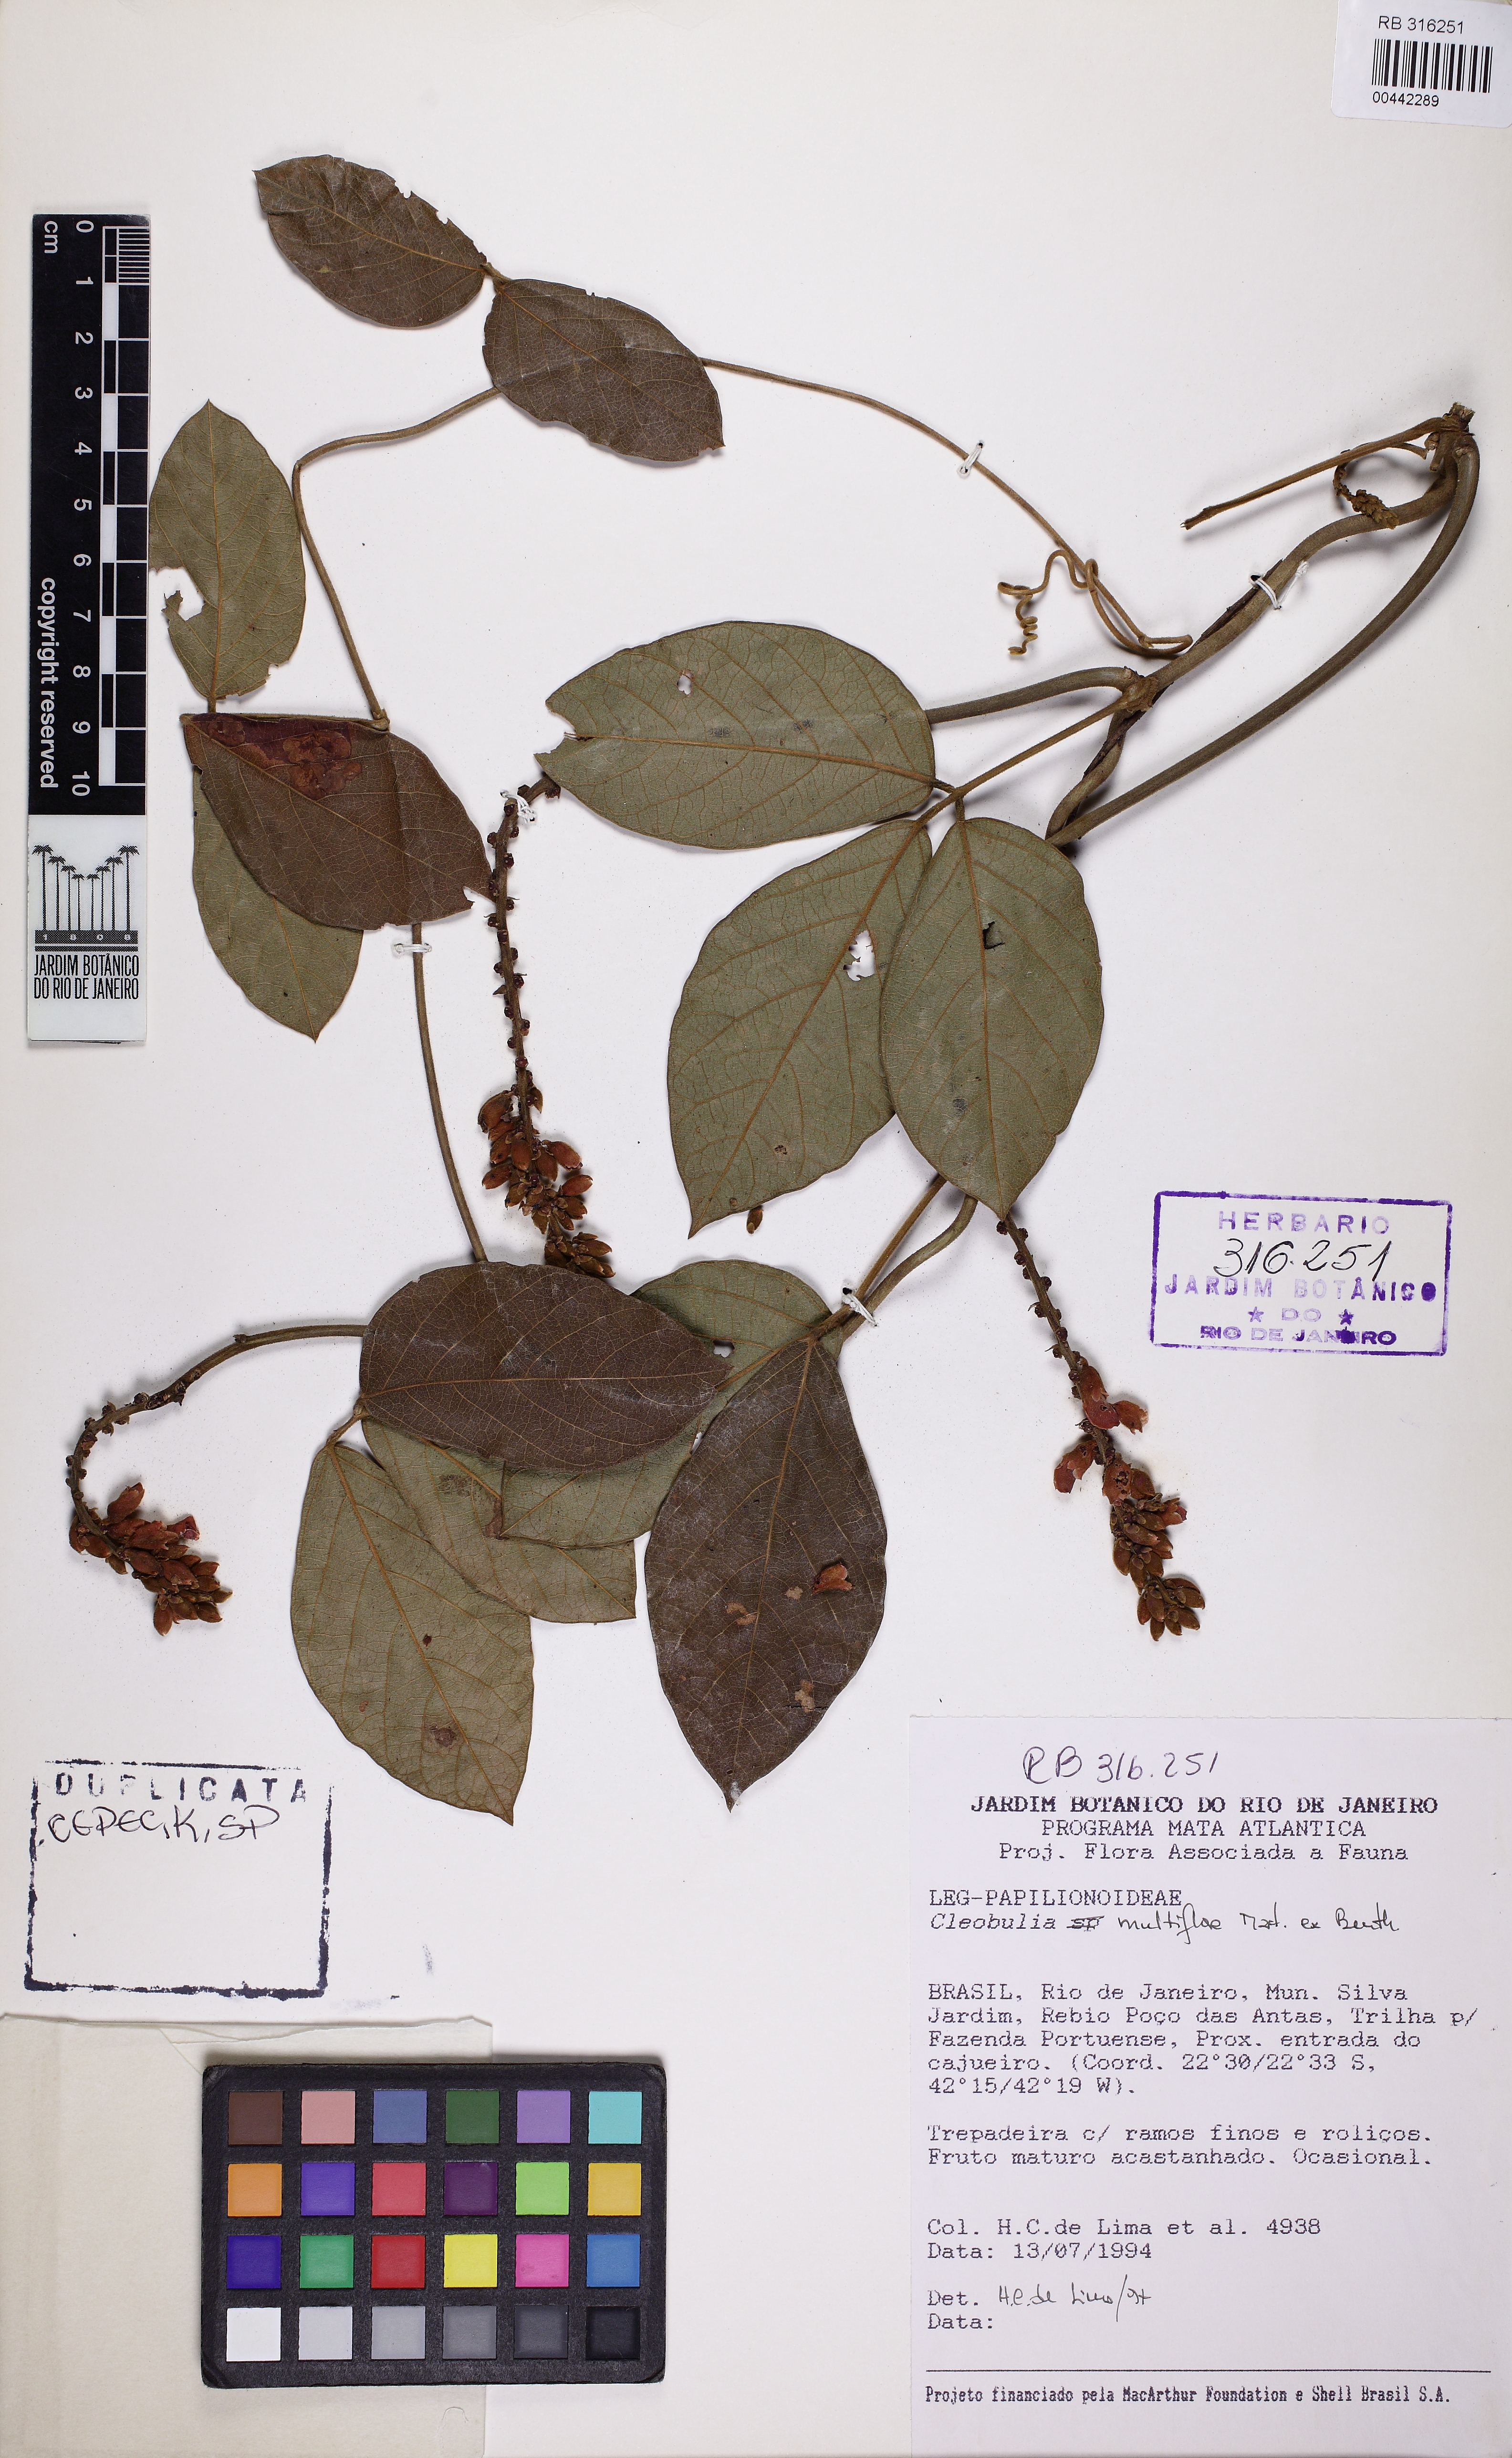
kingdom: Plantae
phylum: Tracheophyta
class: Magnoliopsida
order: Fabales
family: Fabaceae
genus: Cleobulia
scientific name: Cleobulia coccinea
